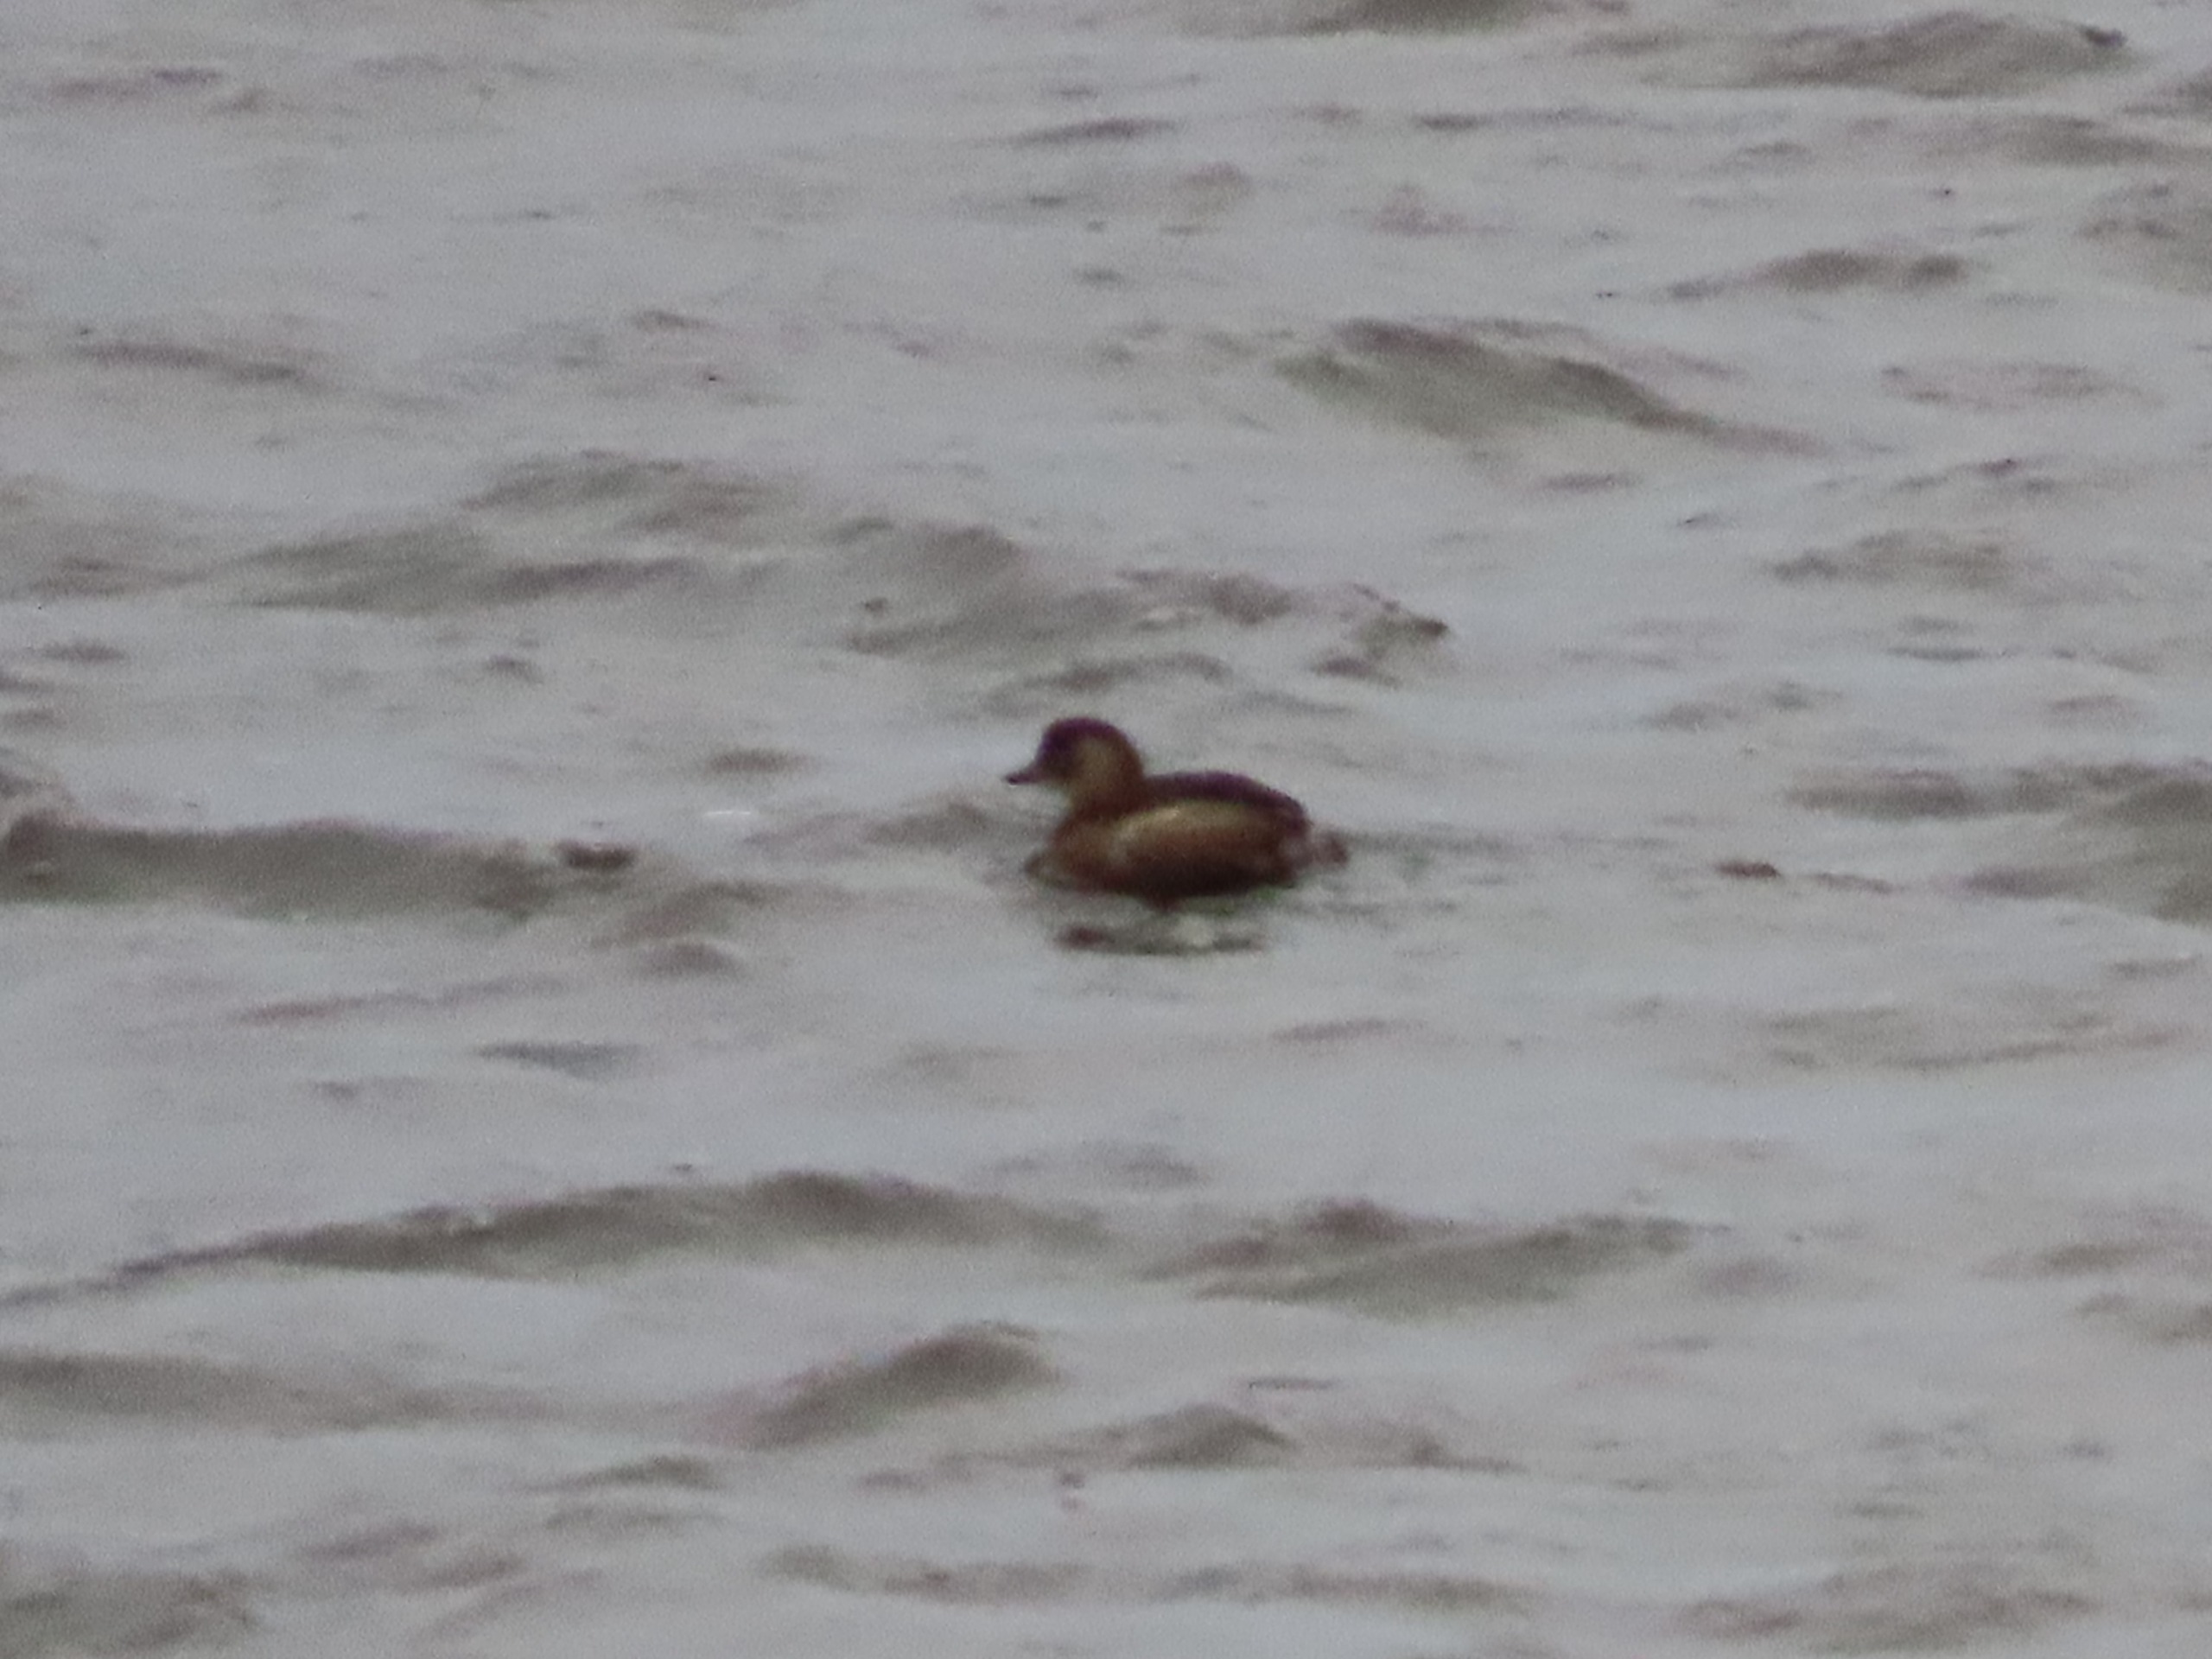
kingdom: Animalia
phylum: Chordata
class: Aves
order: Podicipediformes
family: Podicipedidae
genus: Tachybaptus
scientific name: Tachybaptus ruficollis
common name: Lille lappedykker
